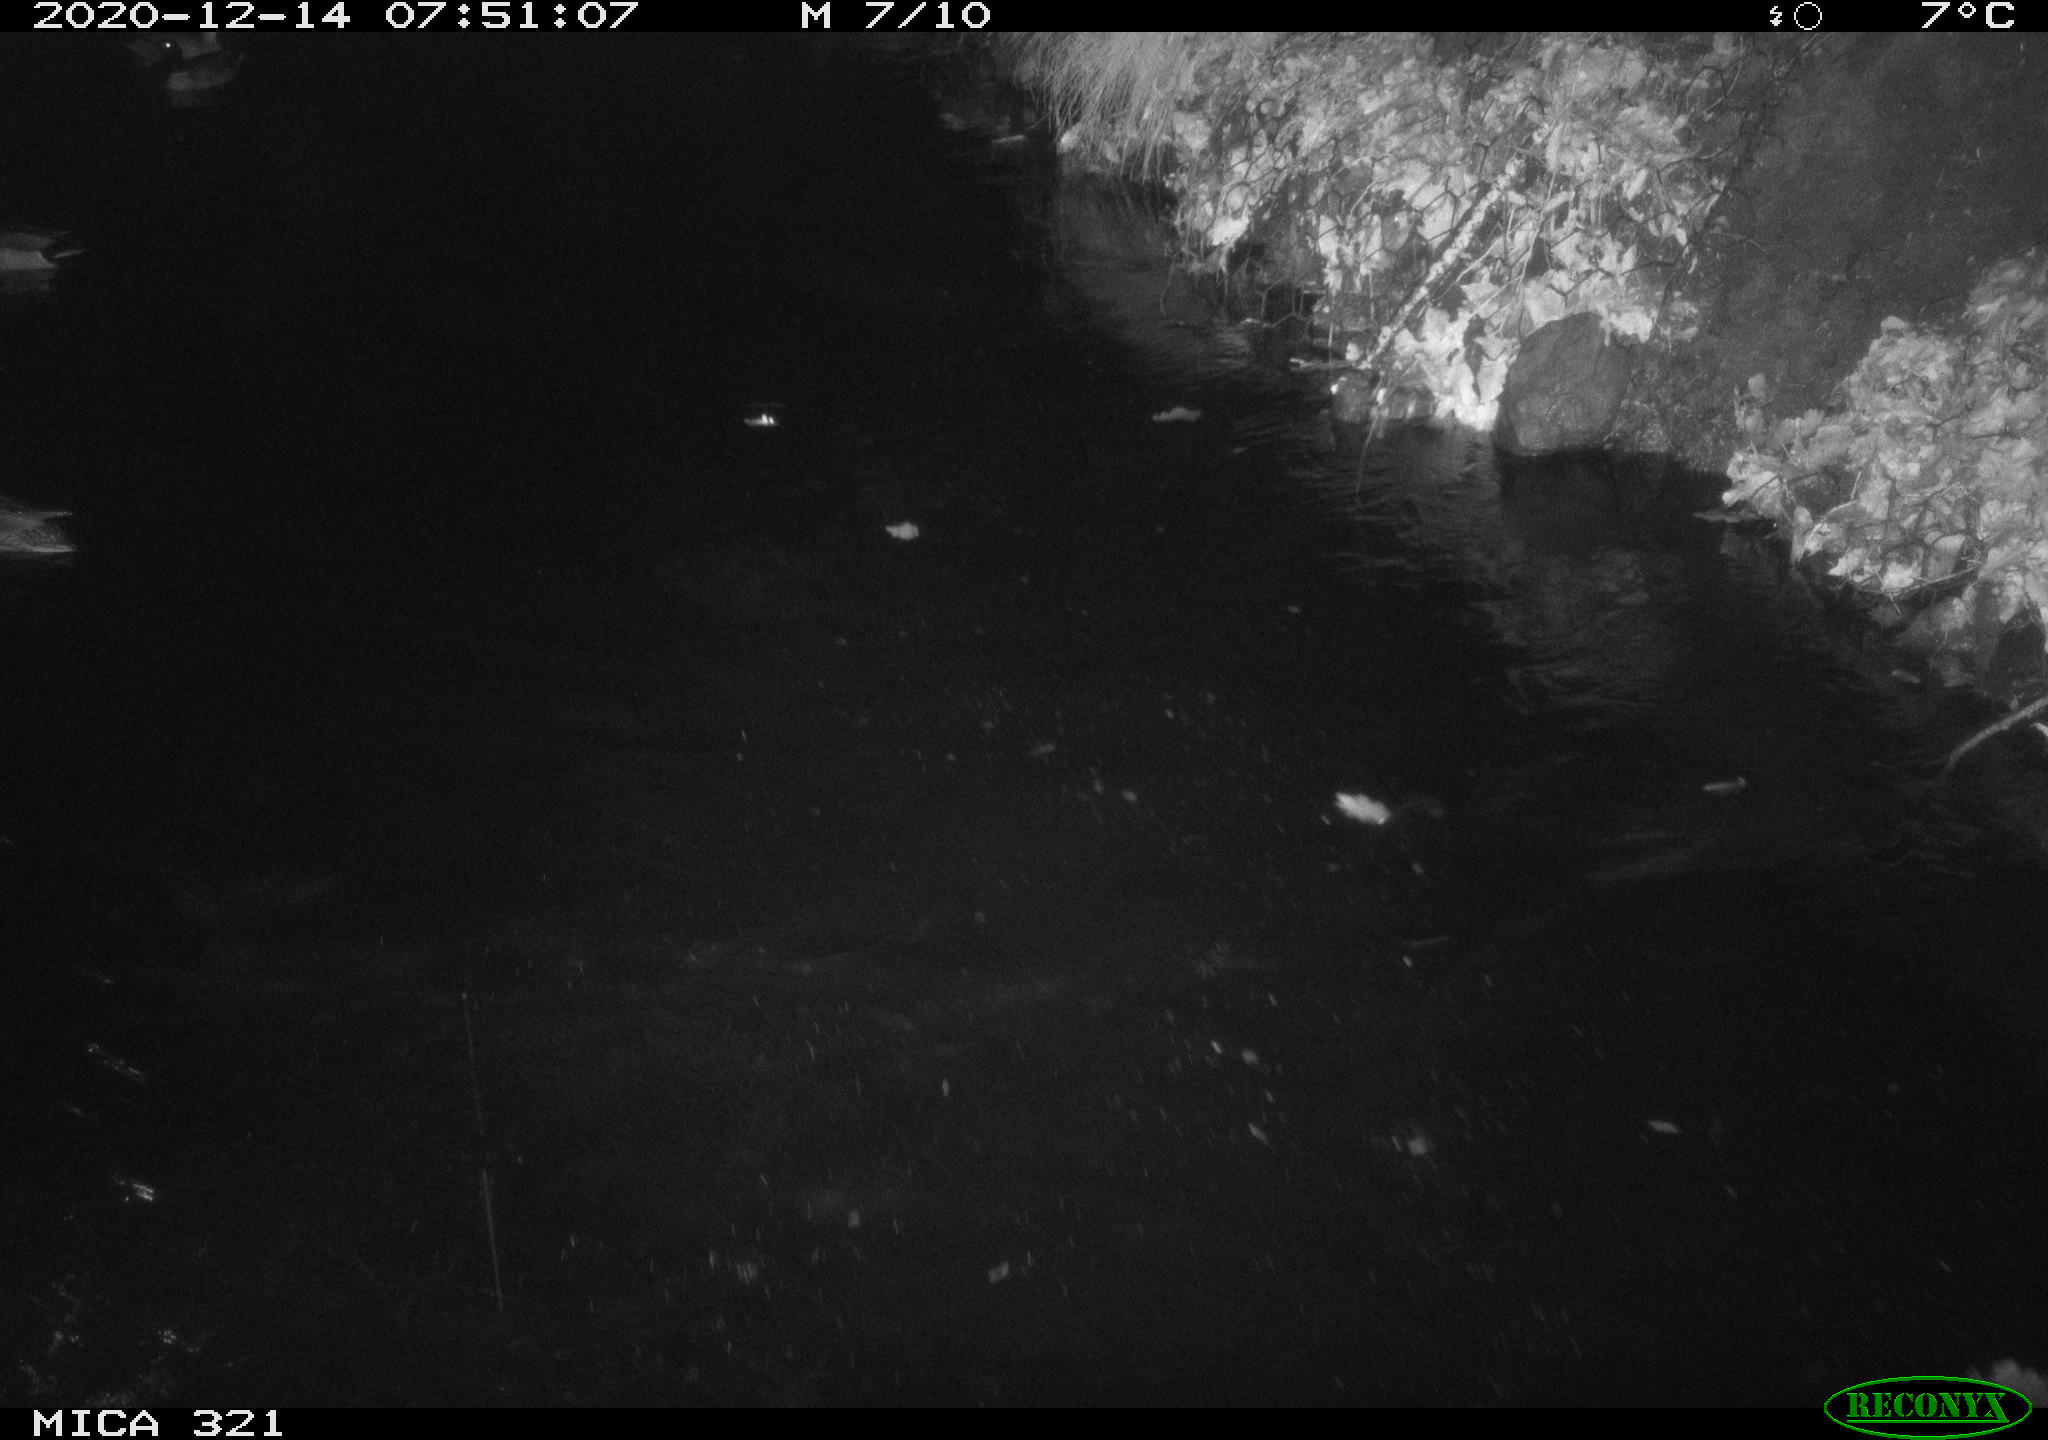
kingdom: Animalia
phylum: Chordata
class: Aves
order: Anseriformes
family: Anatidae
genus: Anas
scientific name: Anas platyrhynchos
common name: Mallard
